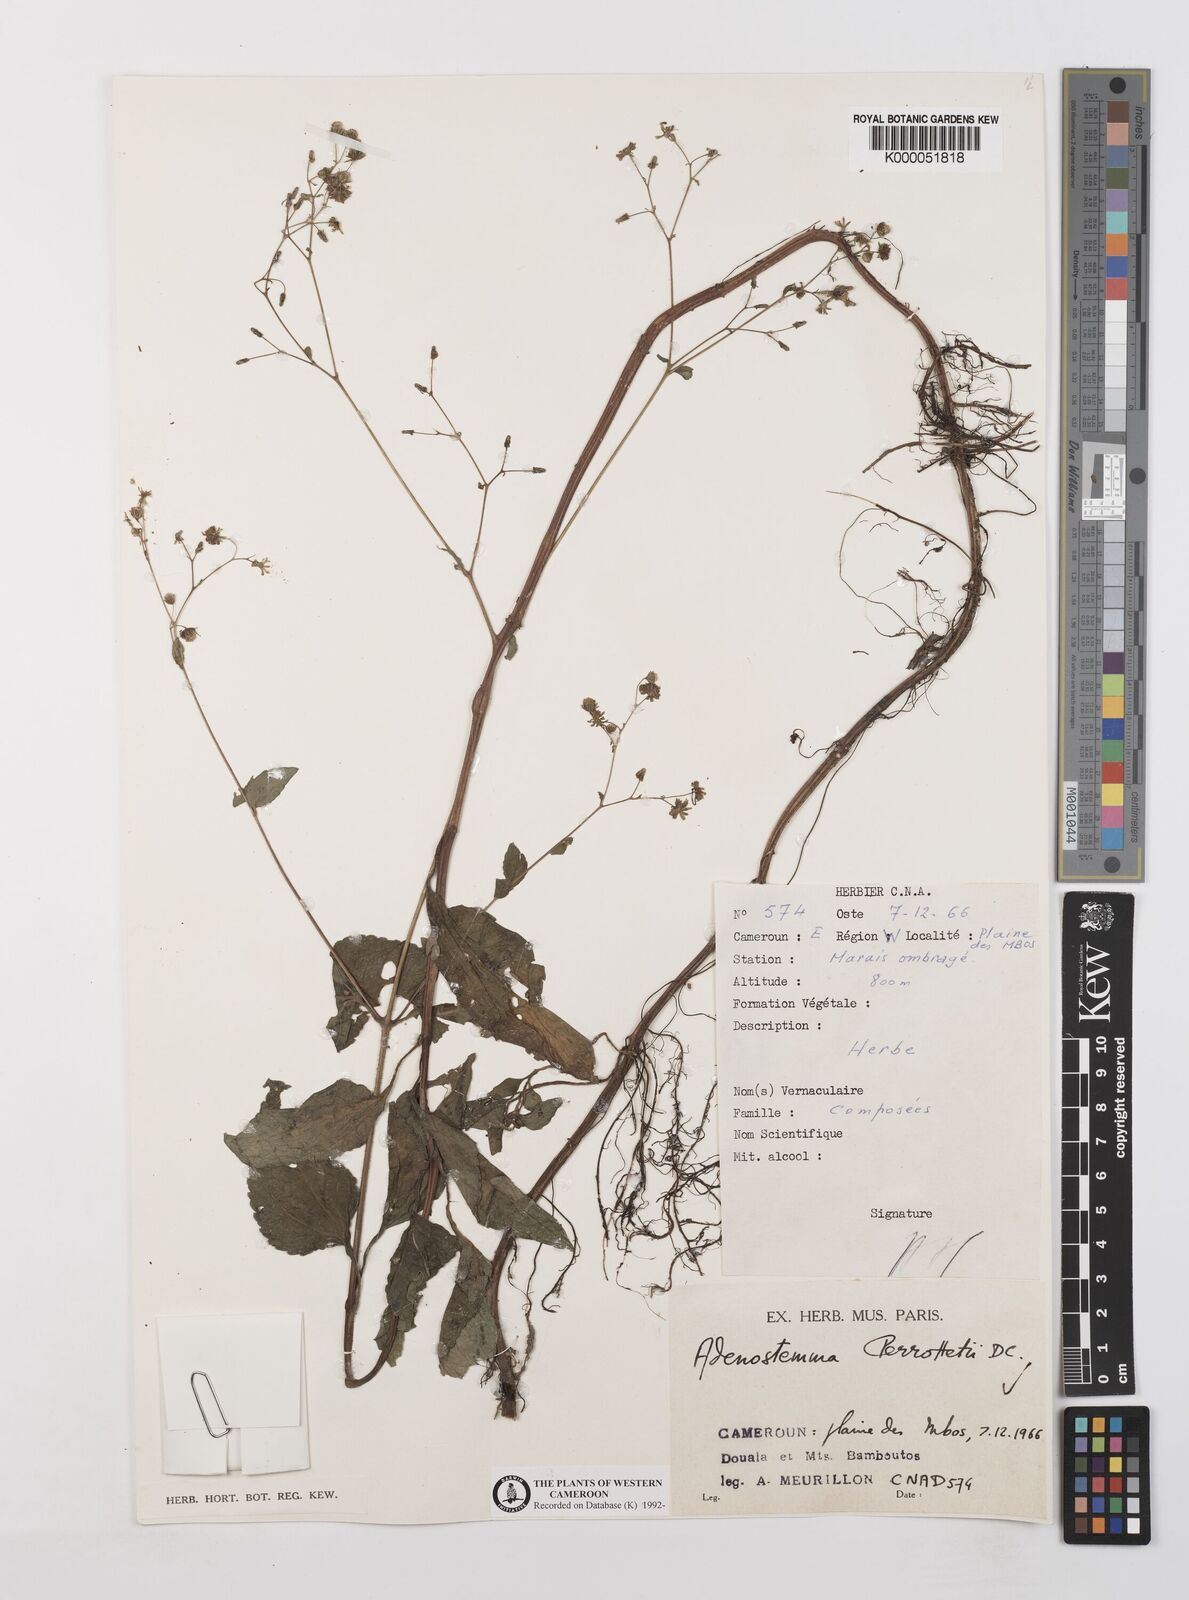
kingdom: Plantae
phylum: Tracheophyta
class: Magnoliopsida
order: Asterales
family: Asteraceae
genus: Adenostemma
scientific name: Adenostemma viscosum
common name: Dungweed
